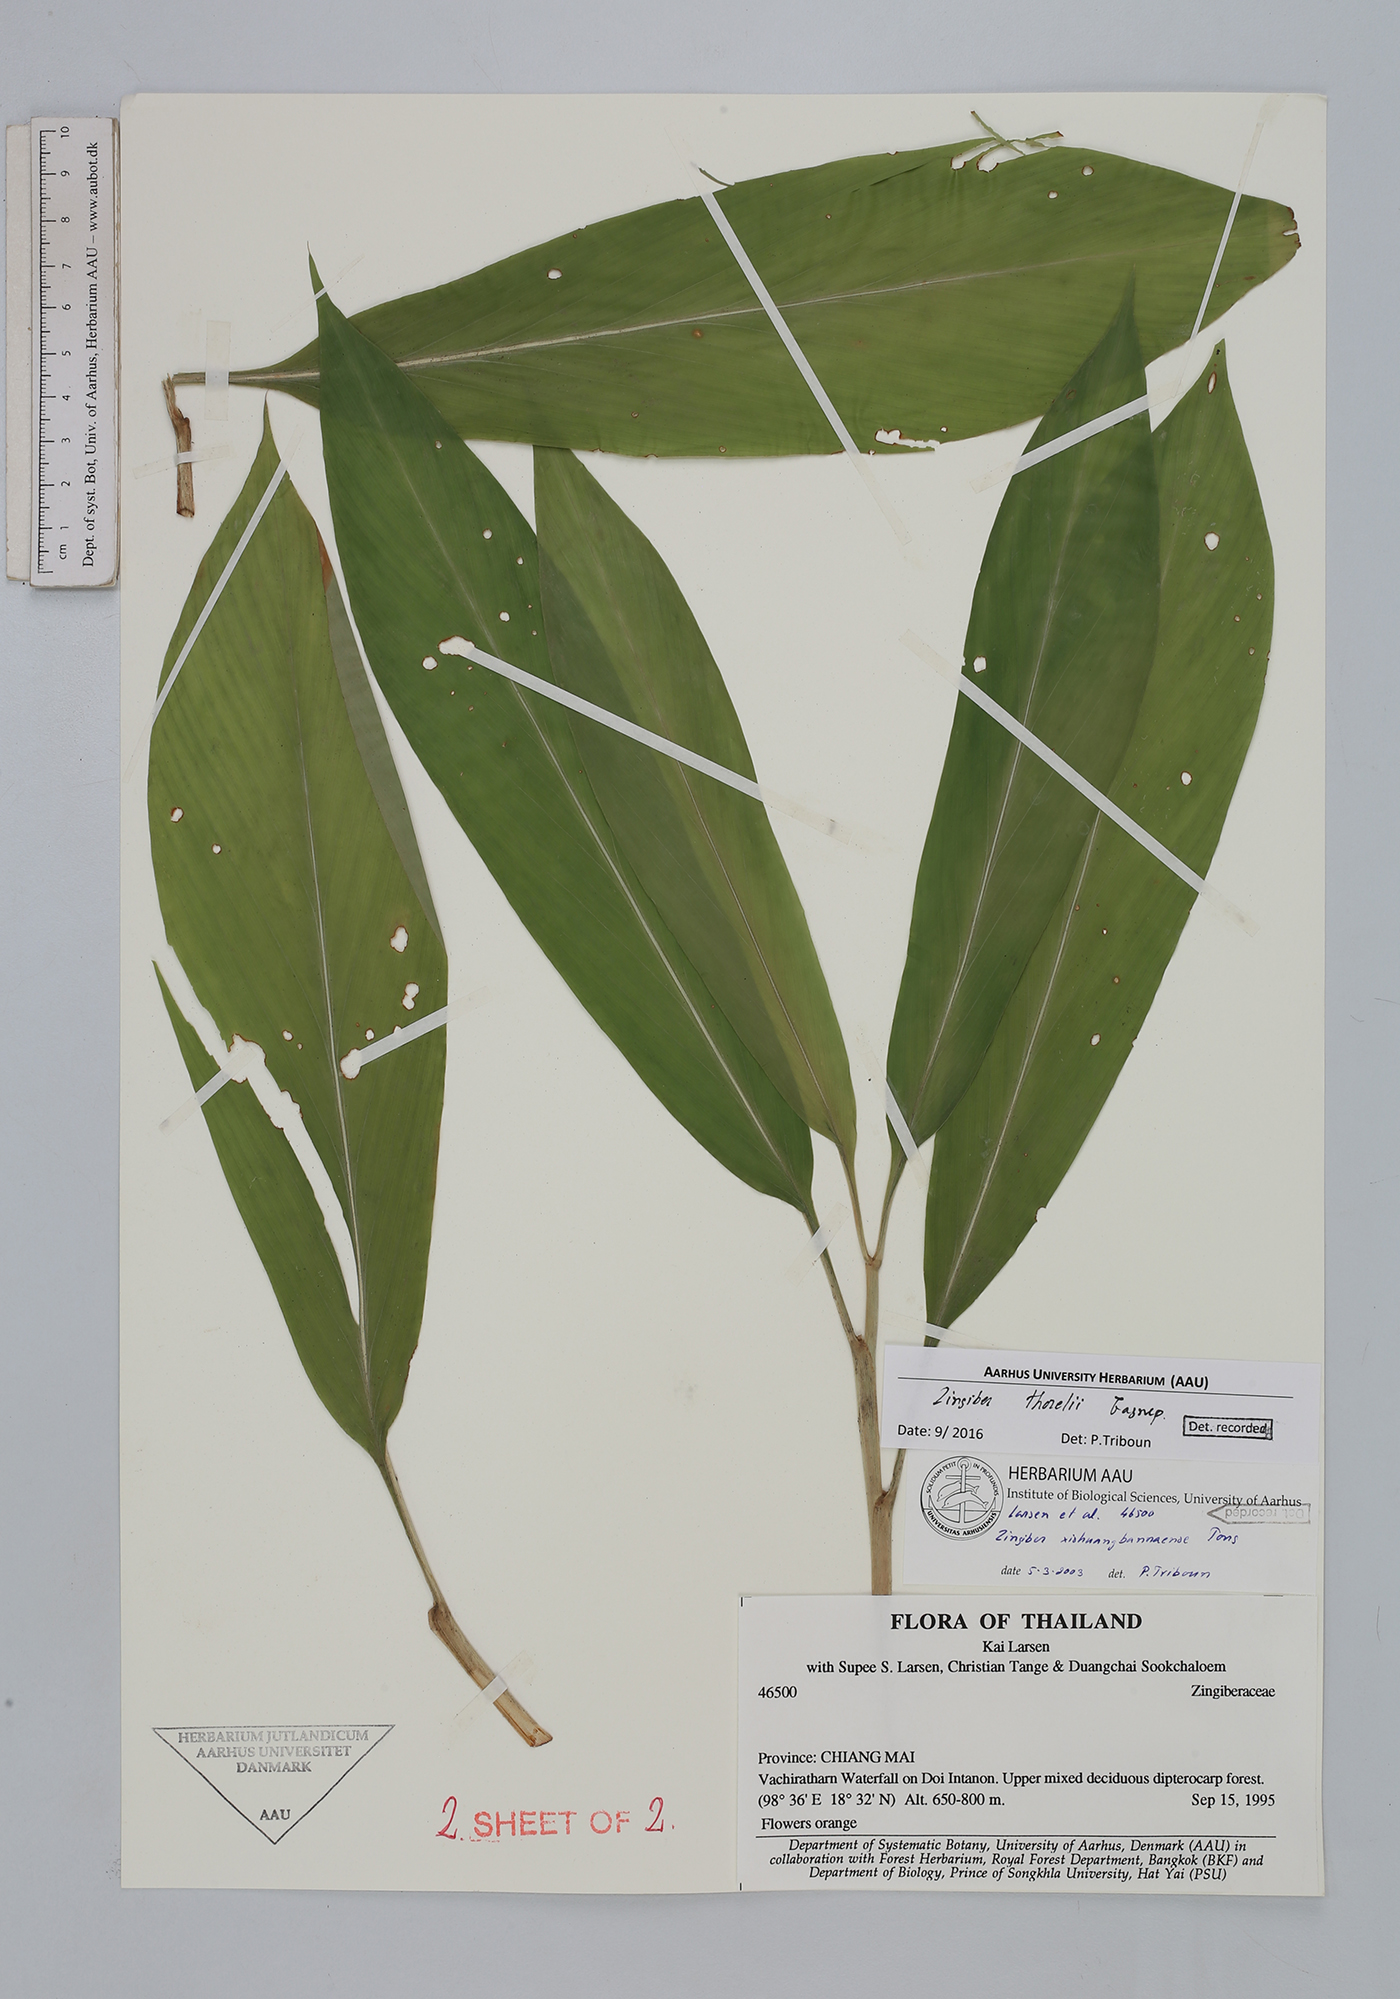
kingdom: Plantae
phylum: Tracheophyta
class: Liliopsida
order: Zingiberales
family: Zingiberaceae
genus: Zingiber
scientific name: Zingiber thorelii
